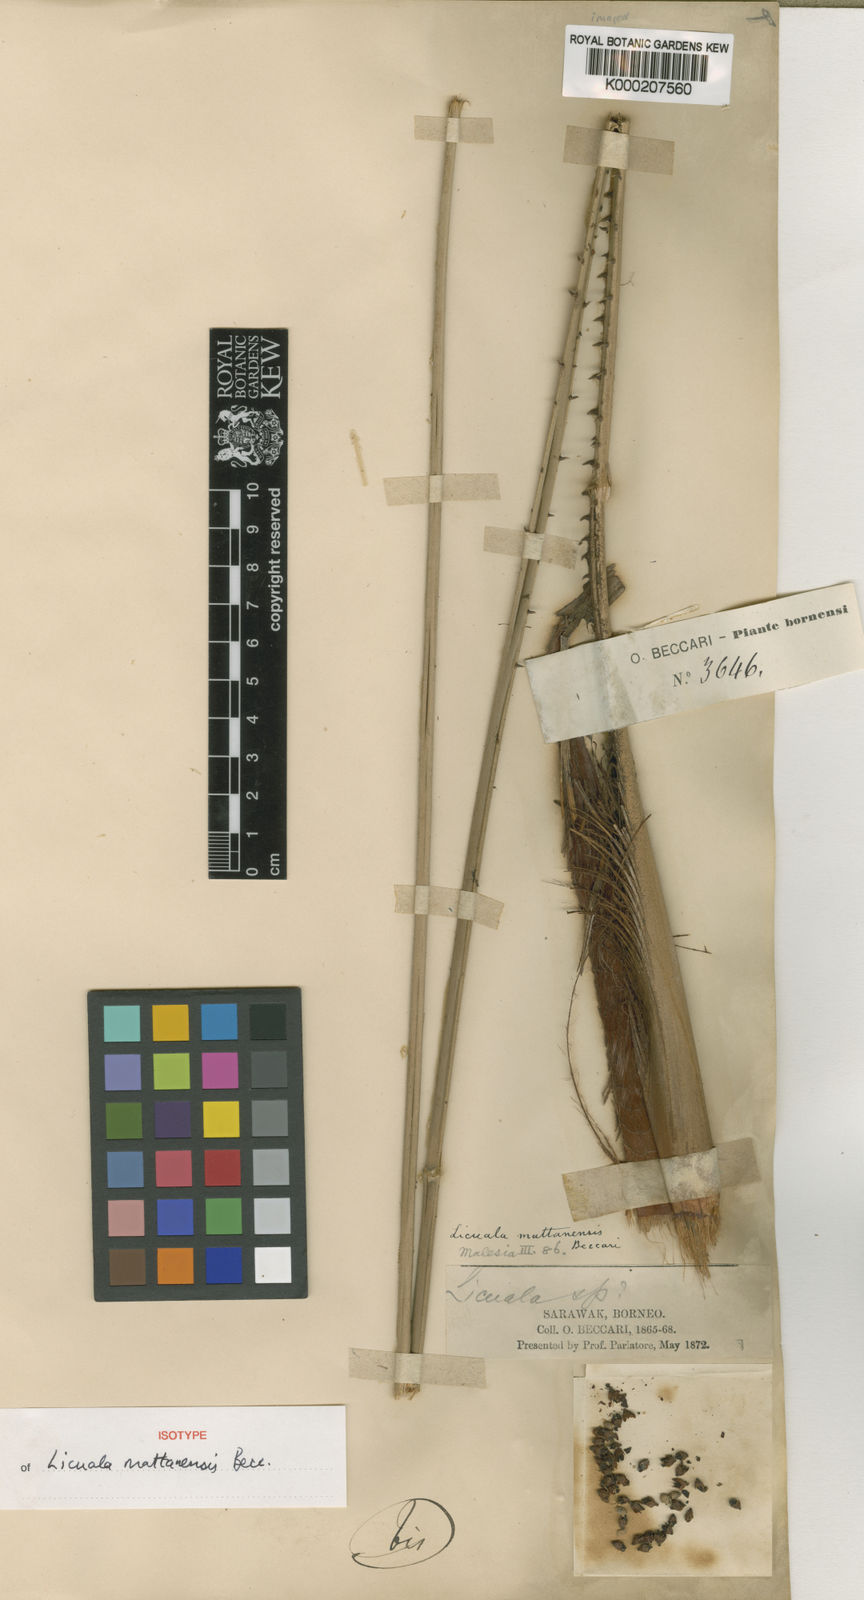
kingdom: Plantae
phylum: Tracheophyta
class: Liliopsida
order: Arecales
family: Arecaceae
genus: Licuala
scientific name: Licuala mattanensis
